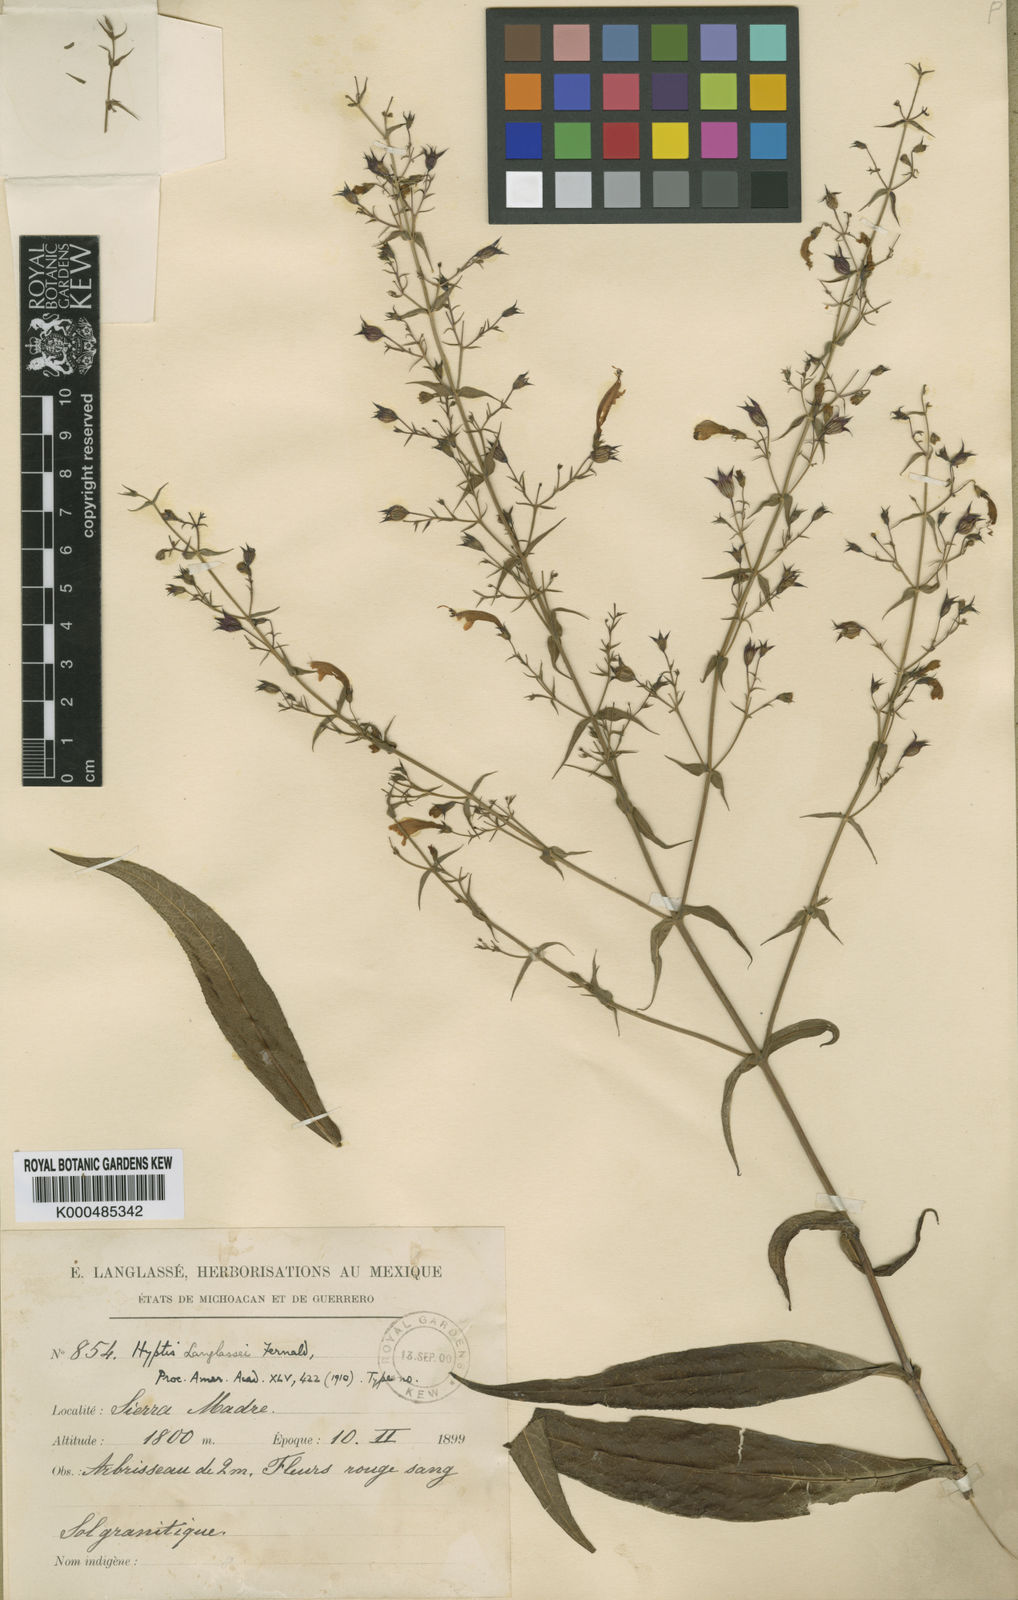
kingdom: Plantae
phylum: Tracheophyta
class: Magnoliopsida
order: Lamiales
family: Lamiaceae
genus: Lepechinia
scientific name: Lepechinia nelsonii
